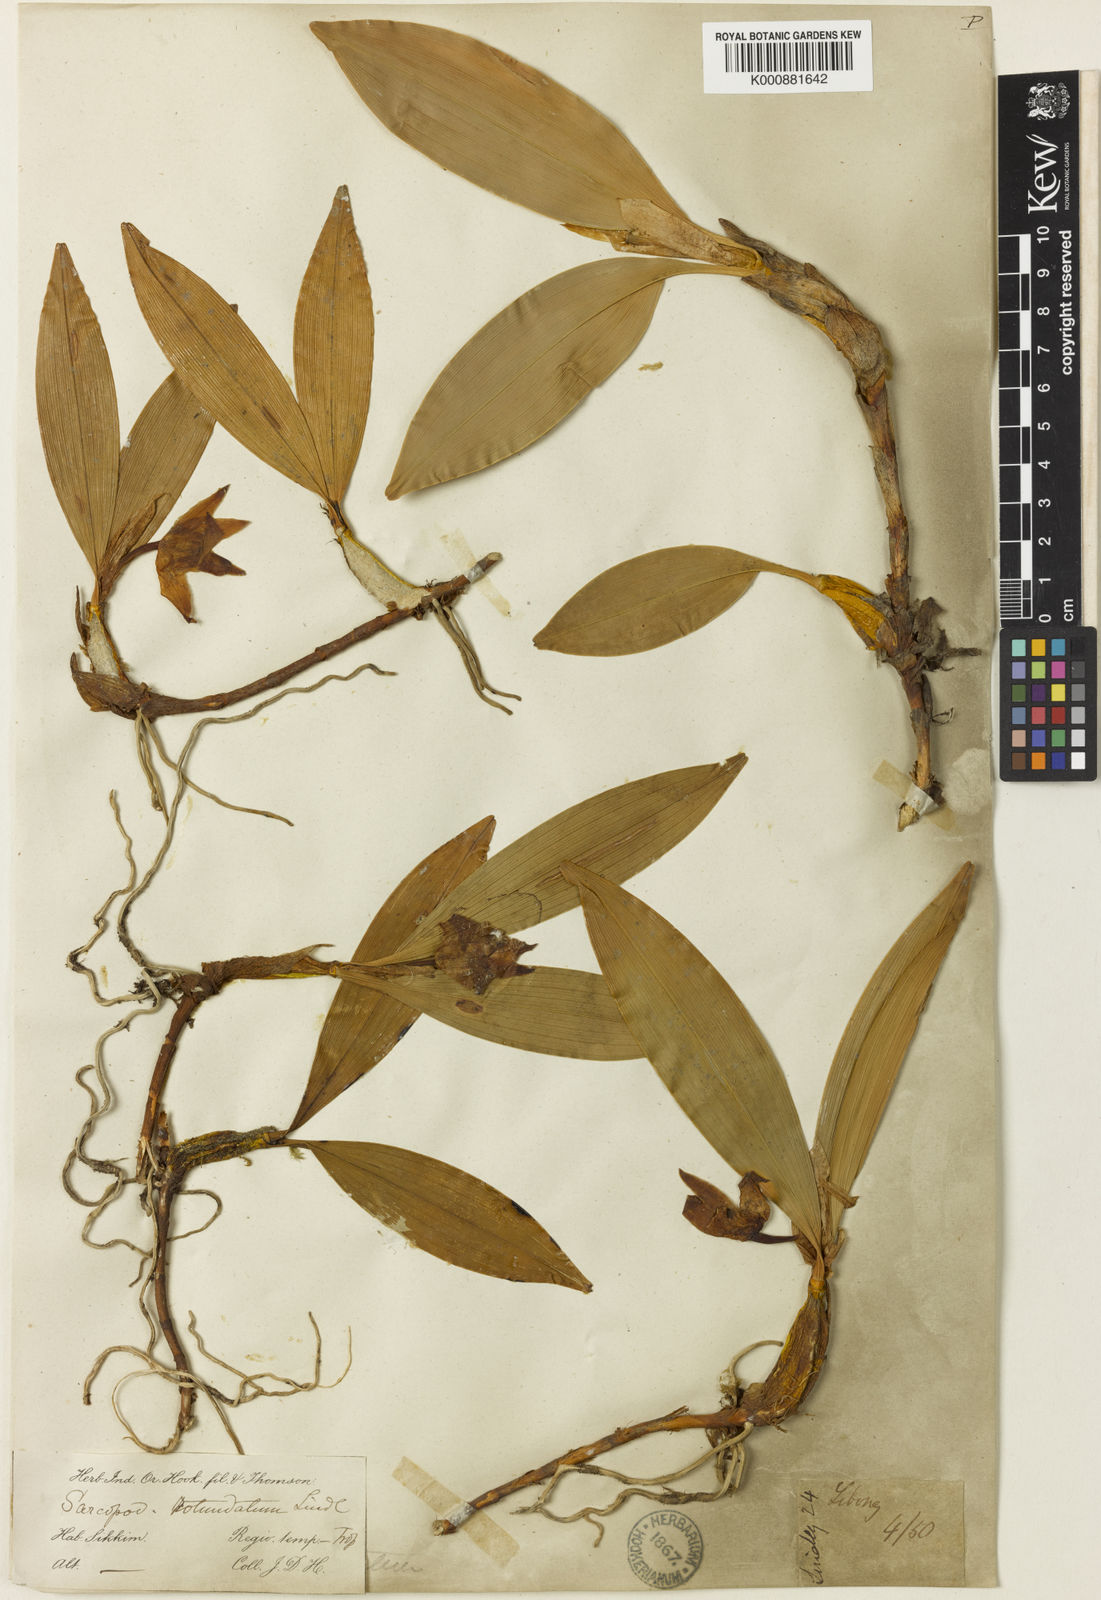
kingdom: Plantae
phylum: Tracheophyta
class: Liliopsida
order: Asparagales
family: Orchidaceae
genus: Dendrobium
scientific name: Dendrobium rotundatum
